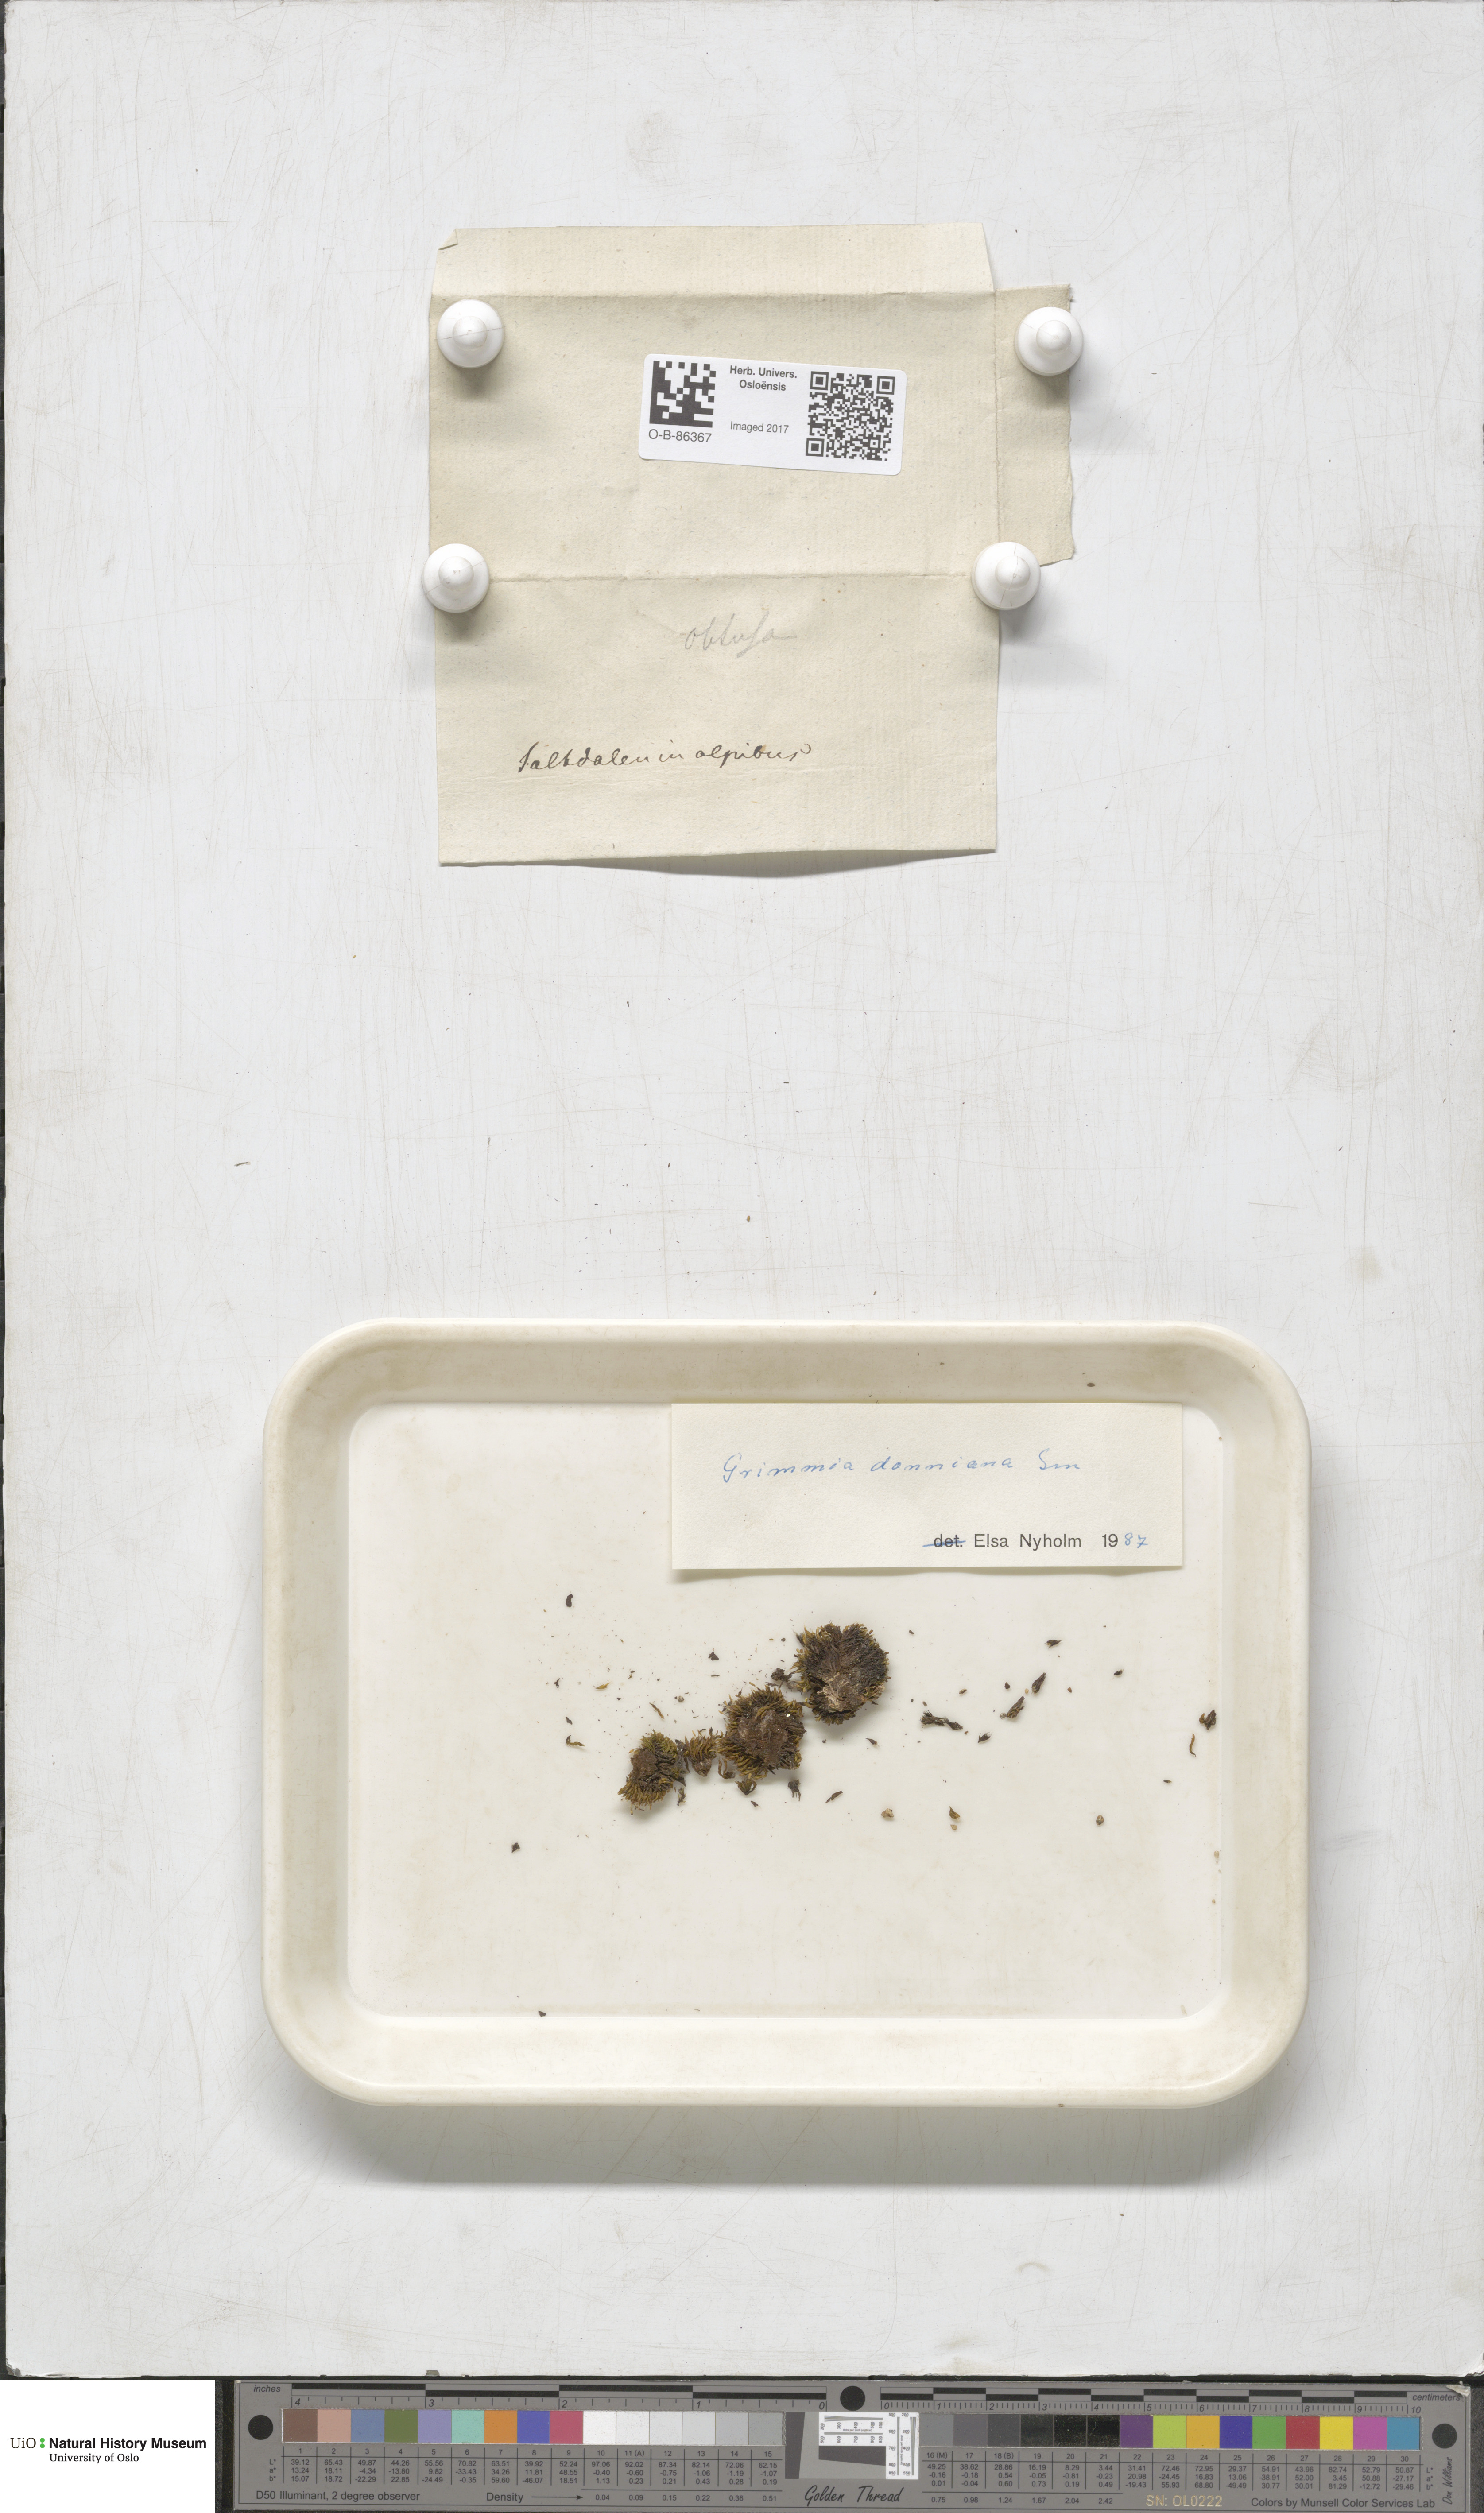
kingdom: Plantae
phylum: Bryophyta
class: Bryopsida
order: Grimmiales
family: Grimmiaceae
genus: Grimmia
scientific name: Grimmia donniana
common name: Donn's grimmia
